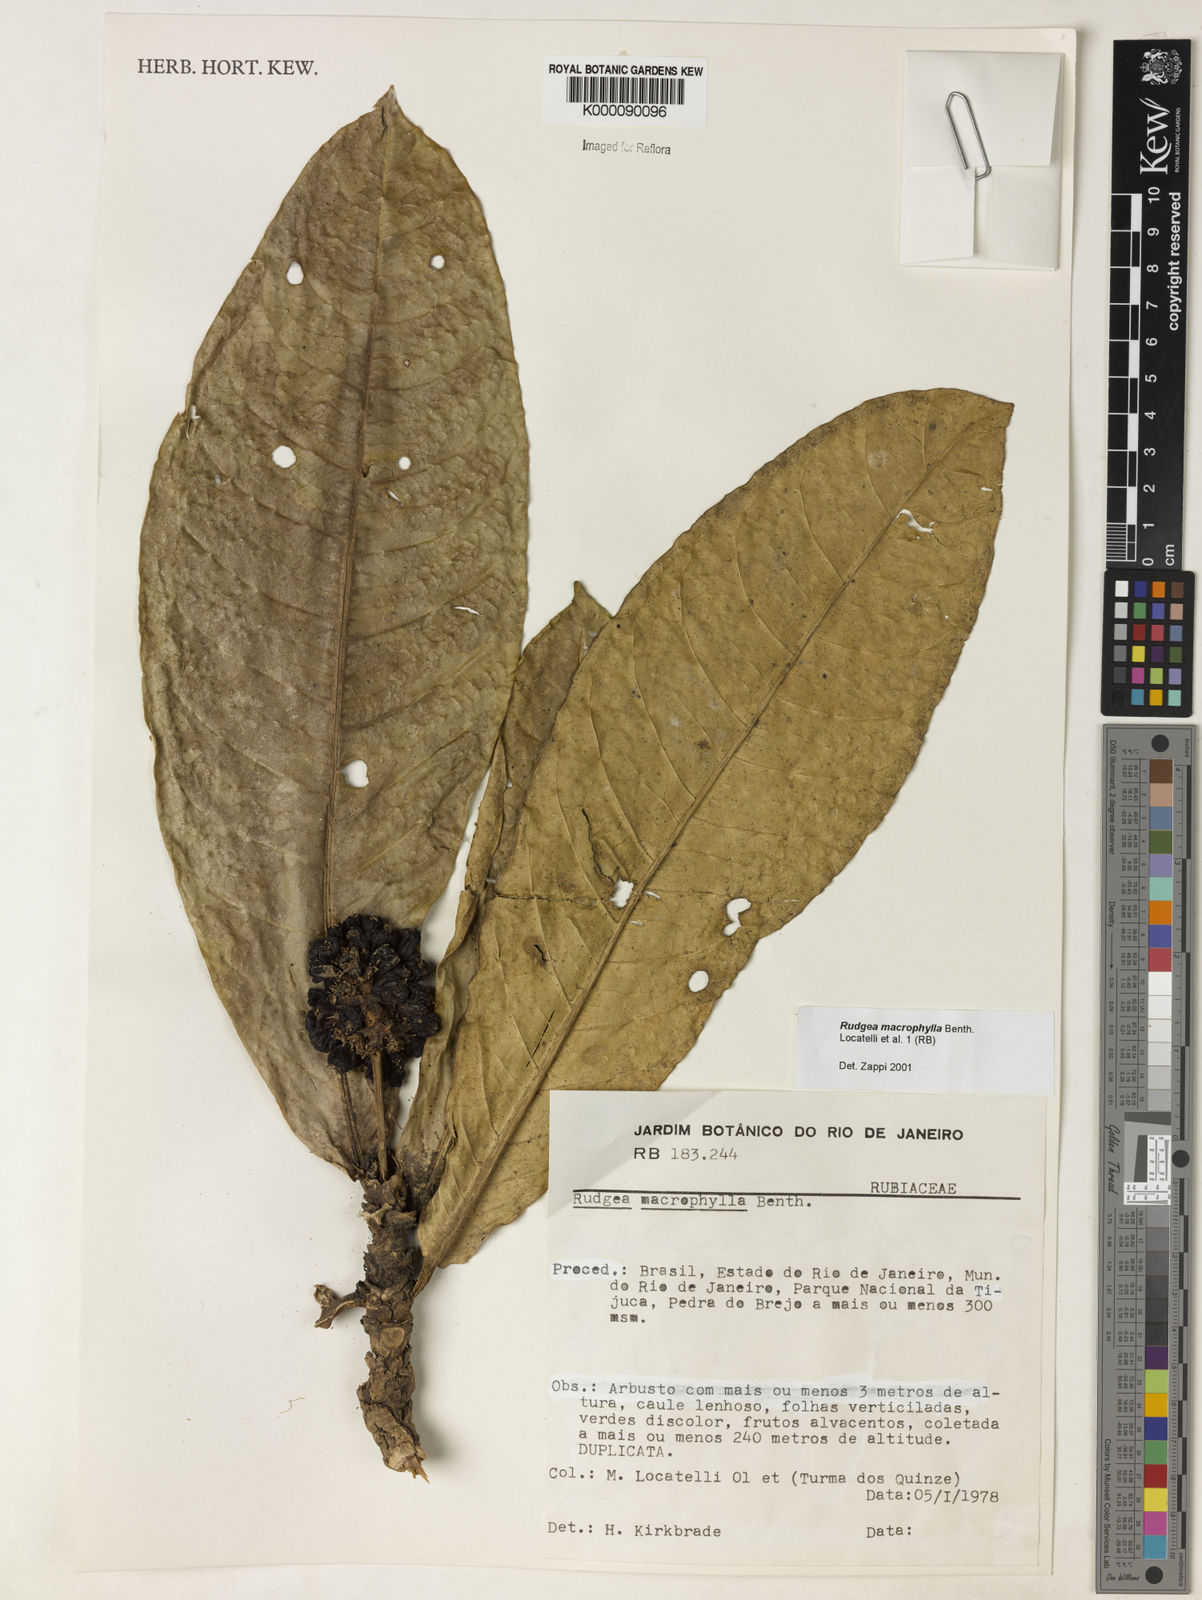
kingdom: Plantae
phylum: Tracheophyta
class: Magnoliopsida
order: Gentianales
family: Rubiaceae
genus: Rudgea
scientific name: Rudgea macrophylla
